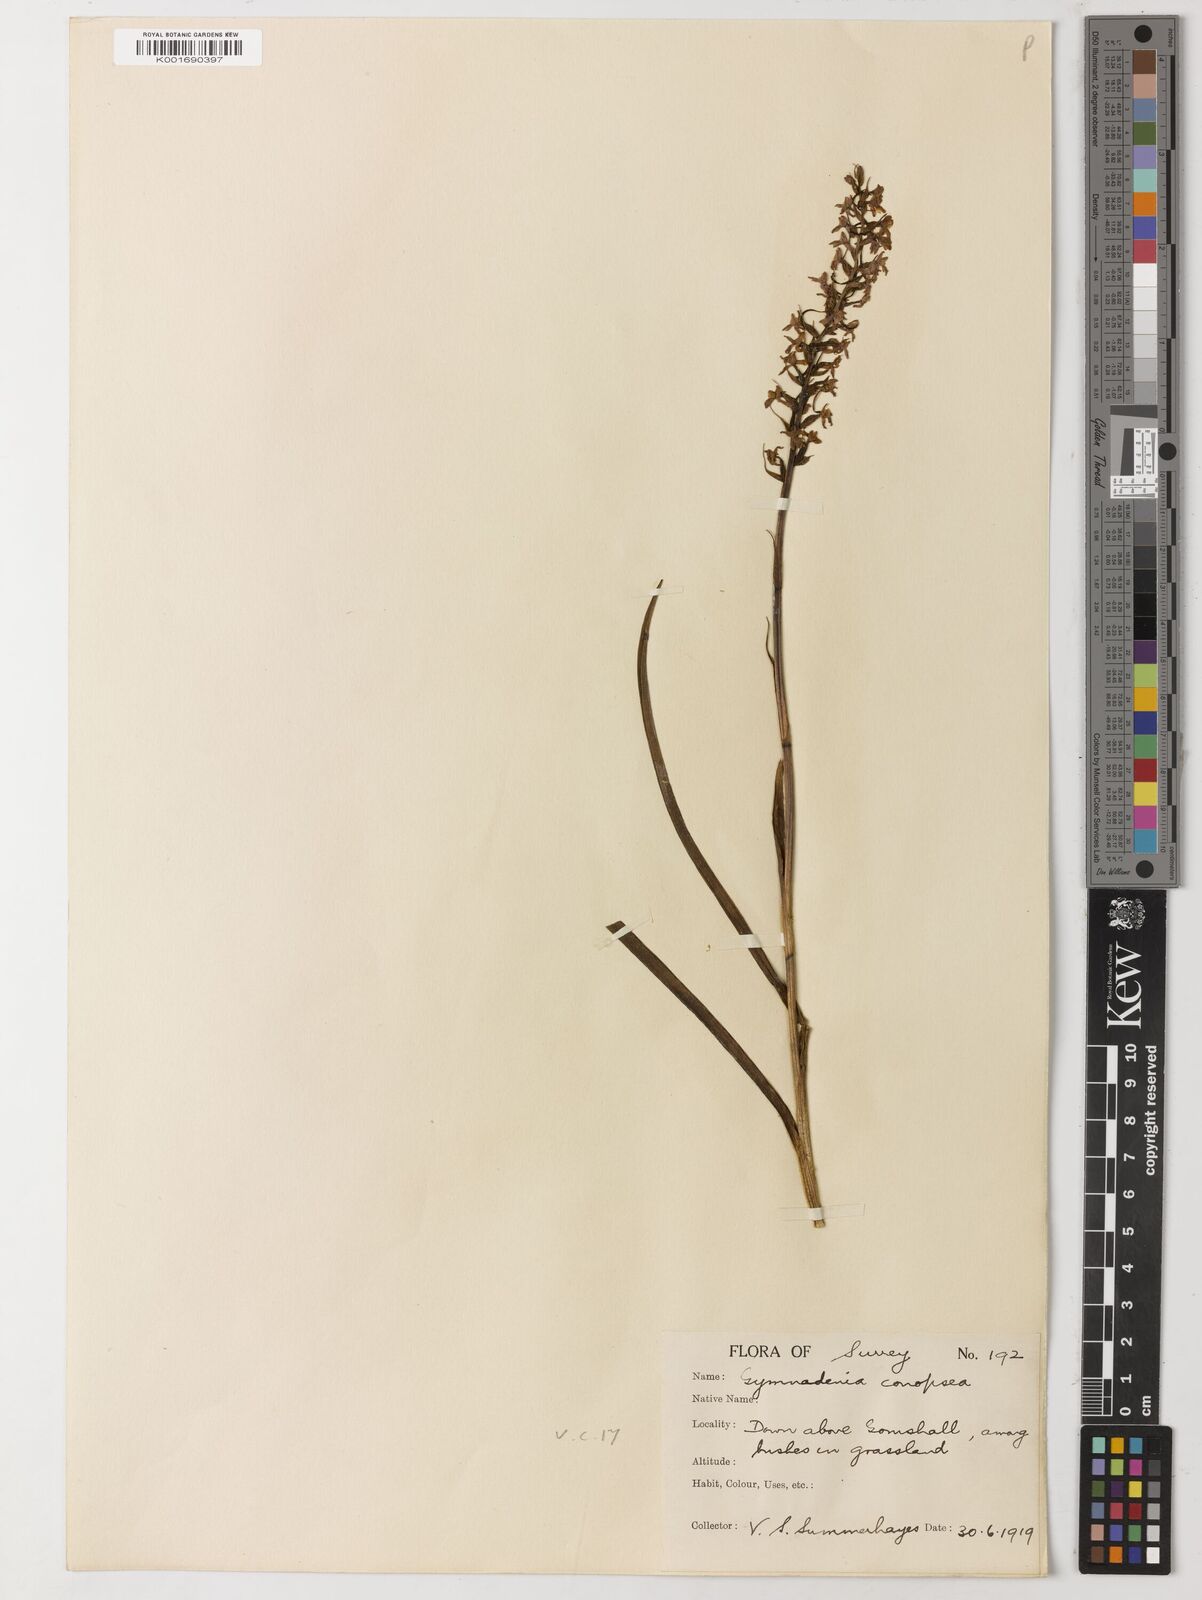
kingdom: Plantae
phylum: Tracheophyta
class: Liliopsida
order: Zingiberales
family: Lowiaceae
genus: Orchidantha
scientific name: Orchidantha maxillarioides
